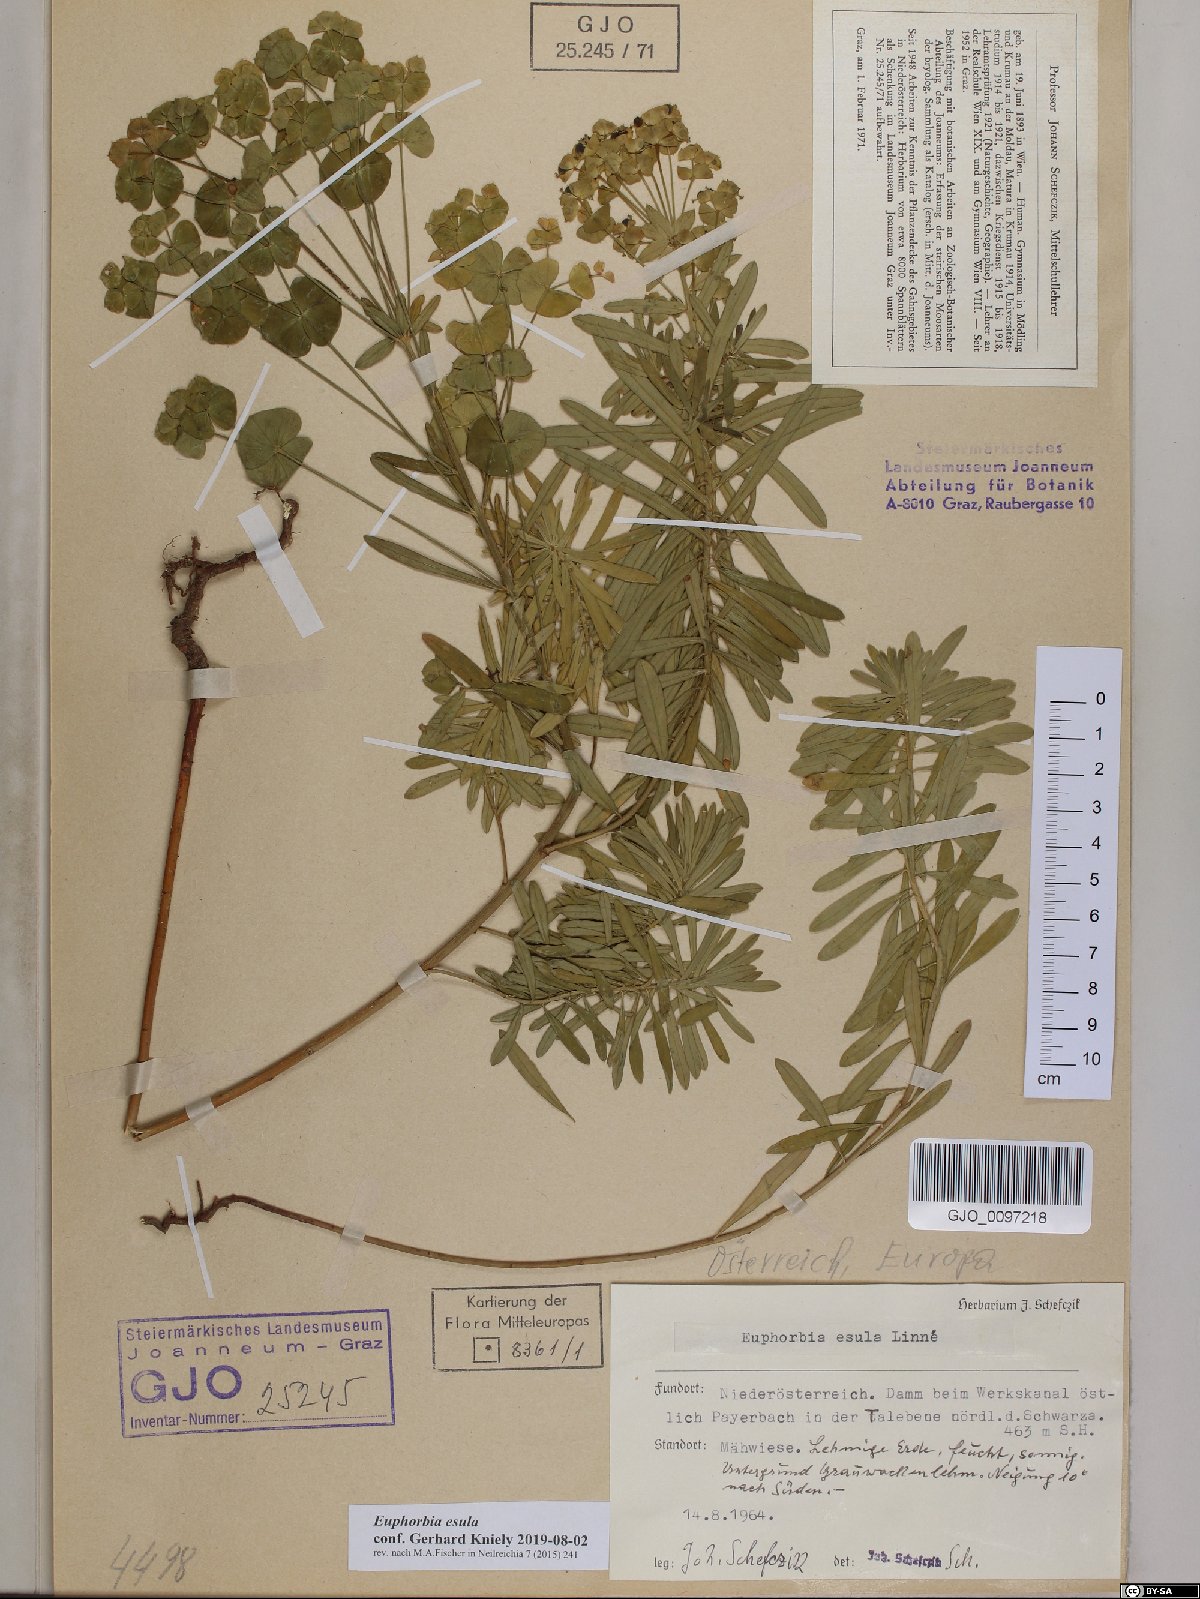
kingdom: Plantae
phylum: Tracheophyta
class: Magnoliopsida
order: Malpighiales
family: Euphorbiaceae
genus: Euphorbia
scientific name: Euphorbia esula
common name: Leafy spurge
